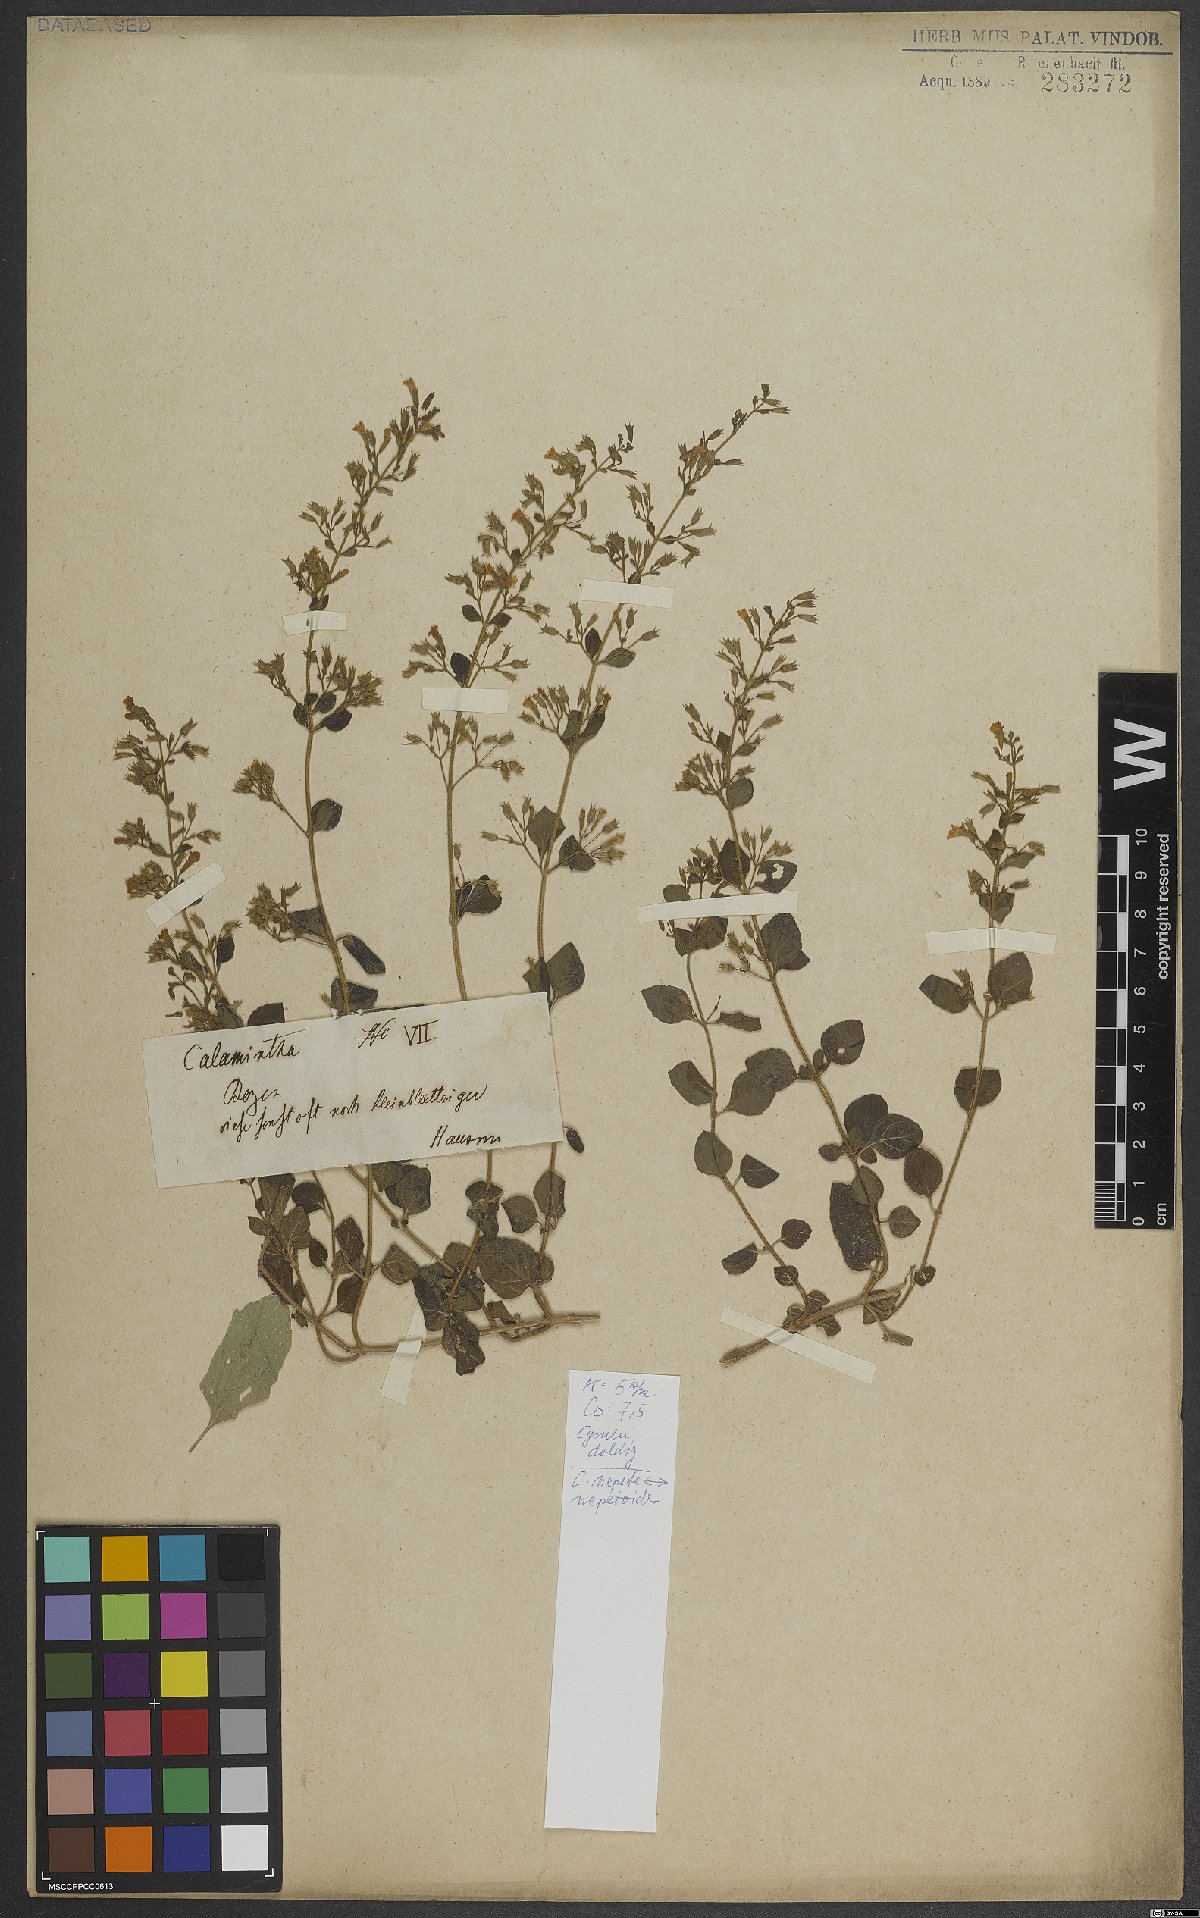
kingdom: Plantae
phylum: Tracheophyta
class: Magnoliopsida
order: Lamiales
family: Lamiaceae
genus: Clinopodium
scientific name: Clinopodium nepeta
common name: Lesser calamint
